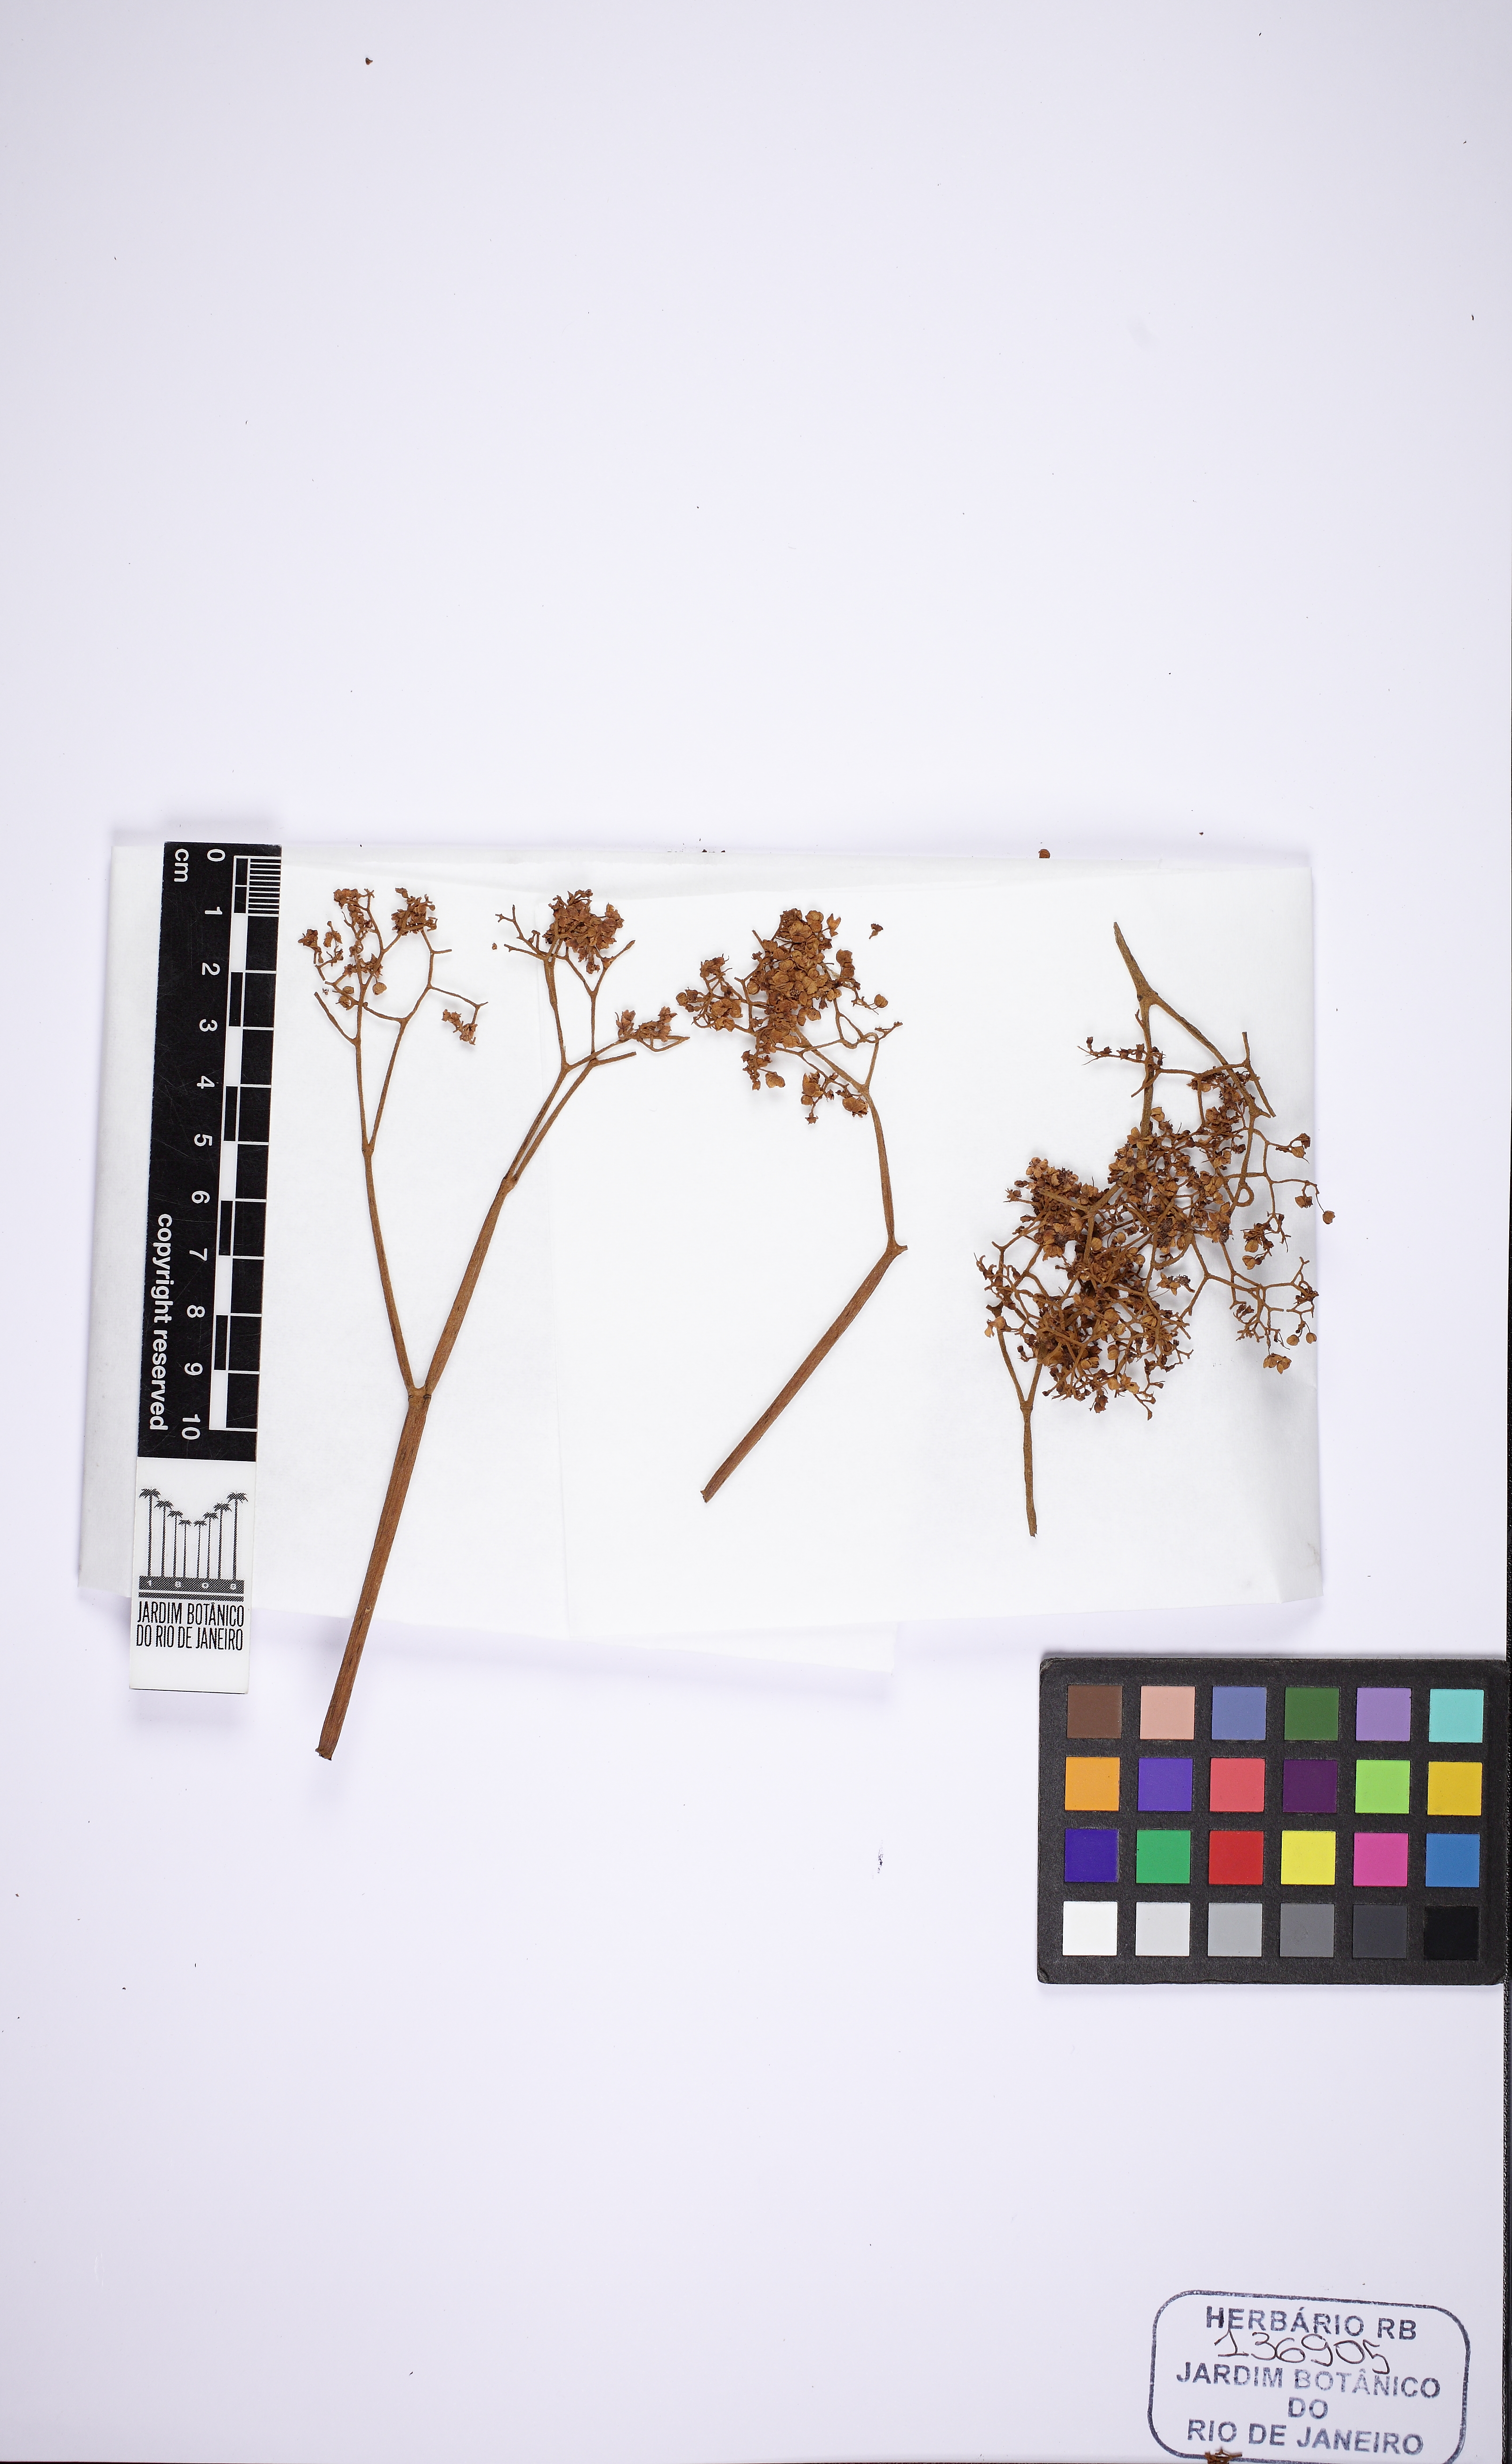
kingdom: Plantae
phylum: Tracheophyta
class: Magnoliopsida
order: Cucurbitales
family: Begoniaceae
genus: Begonia
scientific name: Begonia incisoserrata
